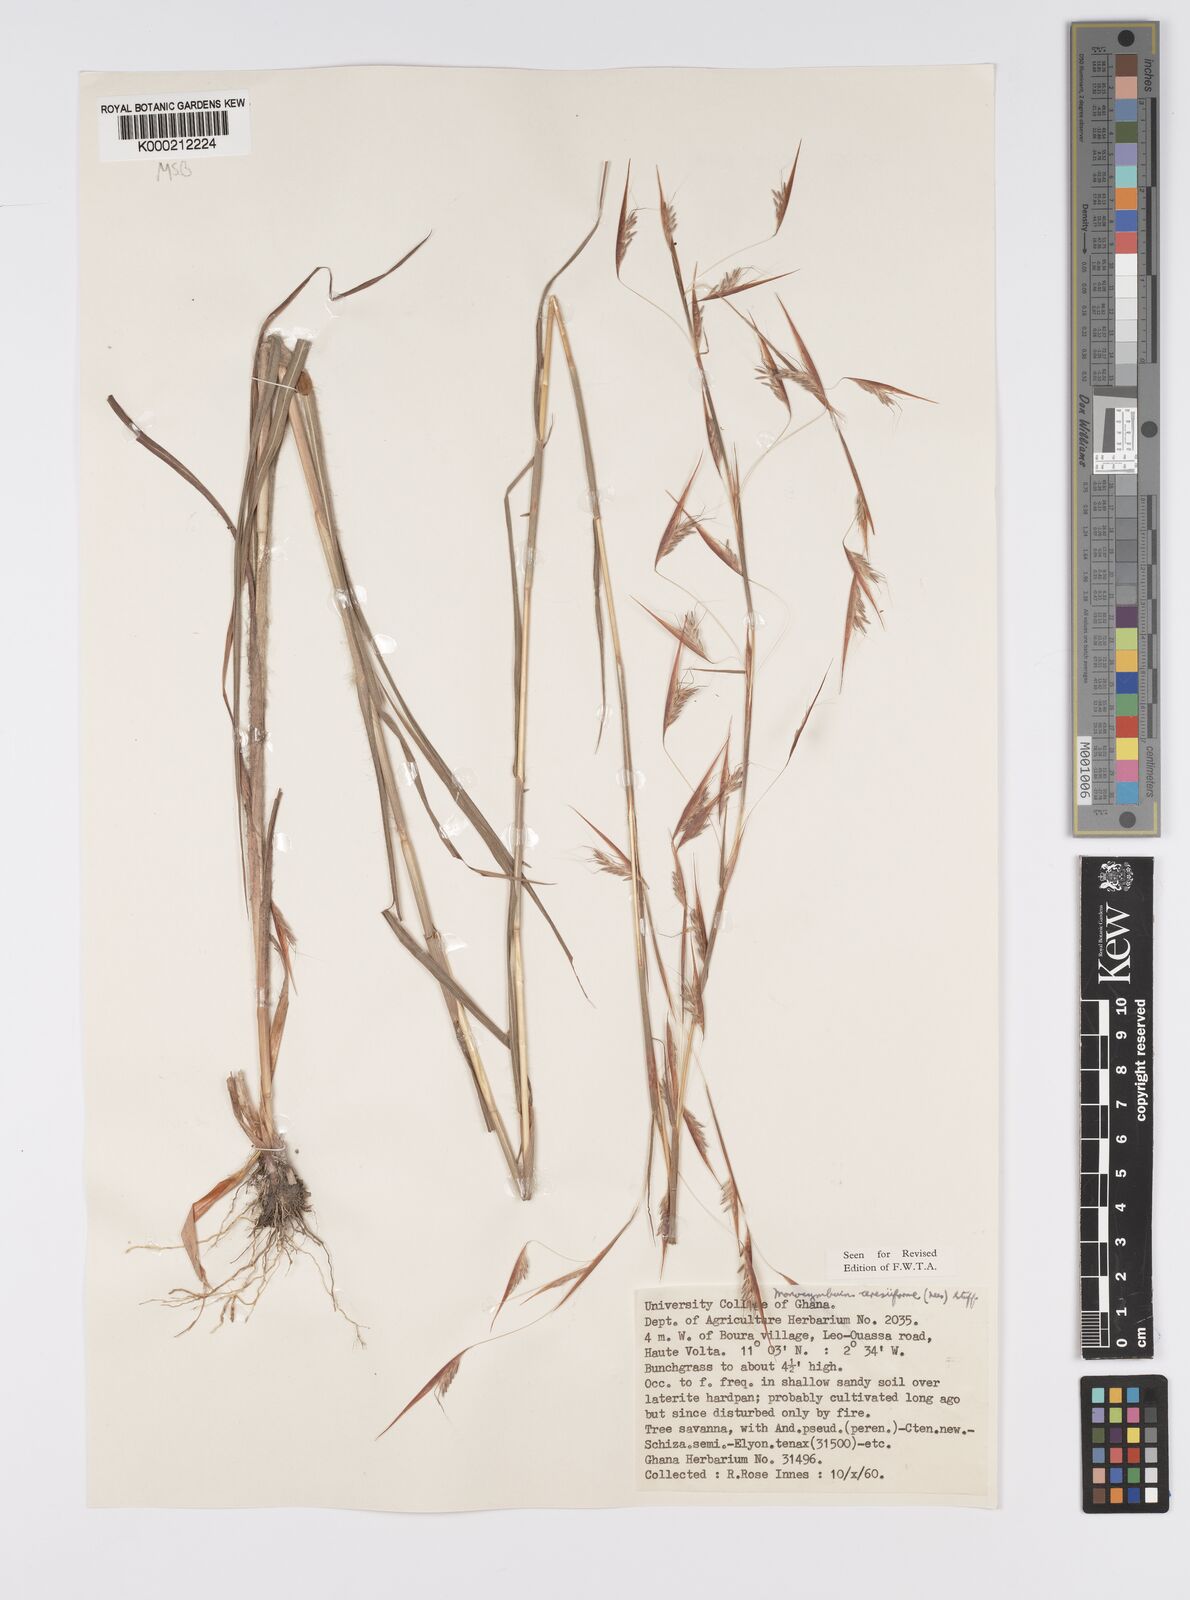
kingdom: Plantae
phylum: Tracheophyta
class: Liliopsida
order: Poales
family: Poaceae
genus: Monocymbium
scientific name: Monocymbium ceresiiforme
